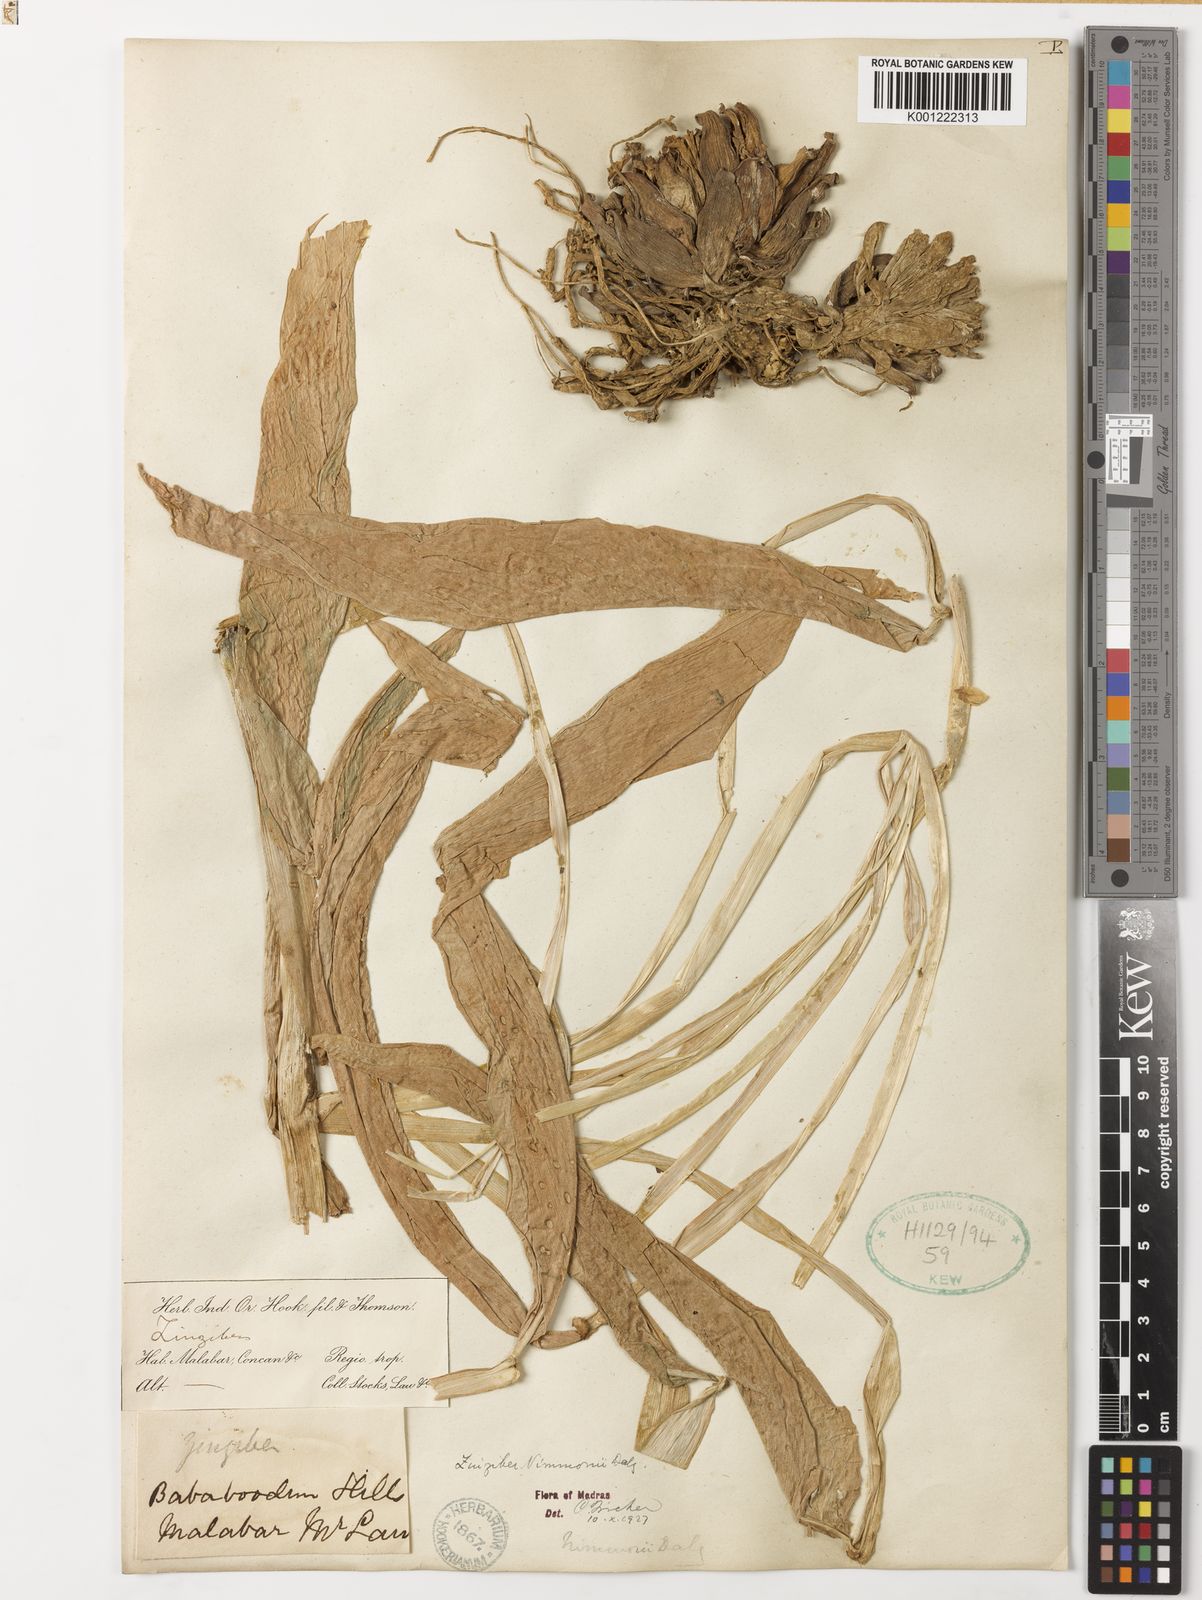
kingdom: Plantae
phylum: Tracheophyta
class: Liliopsida
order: Zingiberales
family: Zingiberaceae
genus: Zingiber
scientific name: Zingiber nimmonii
